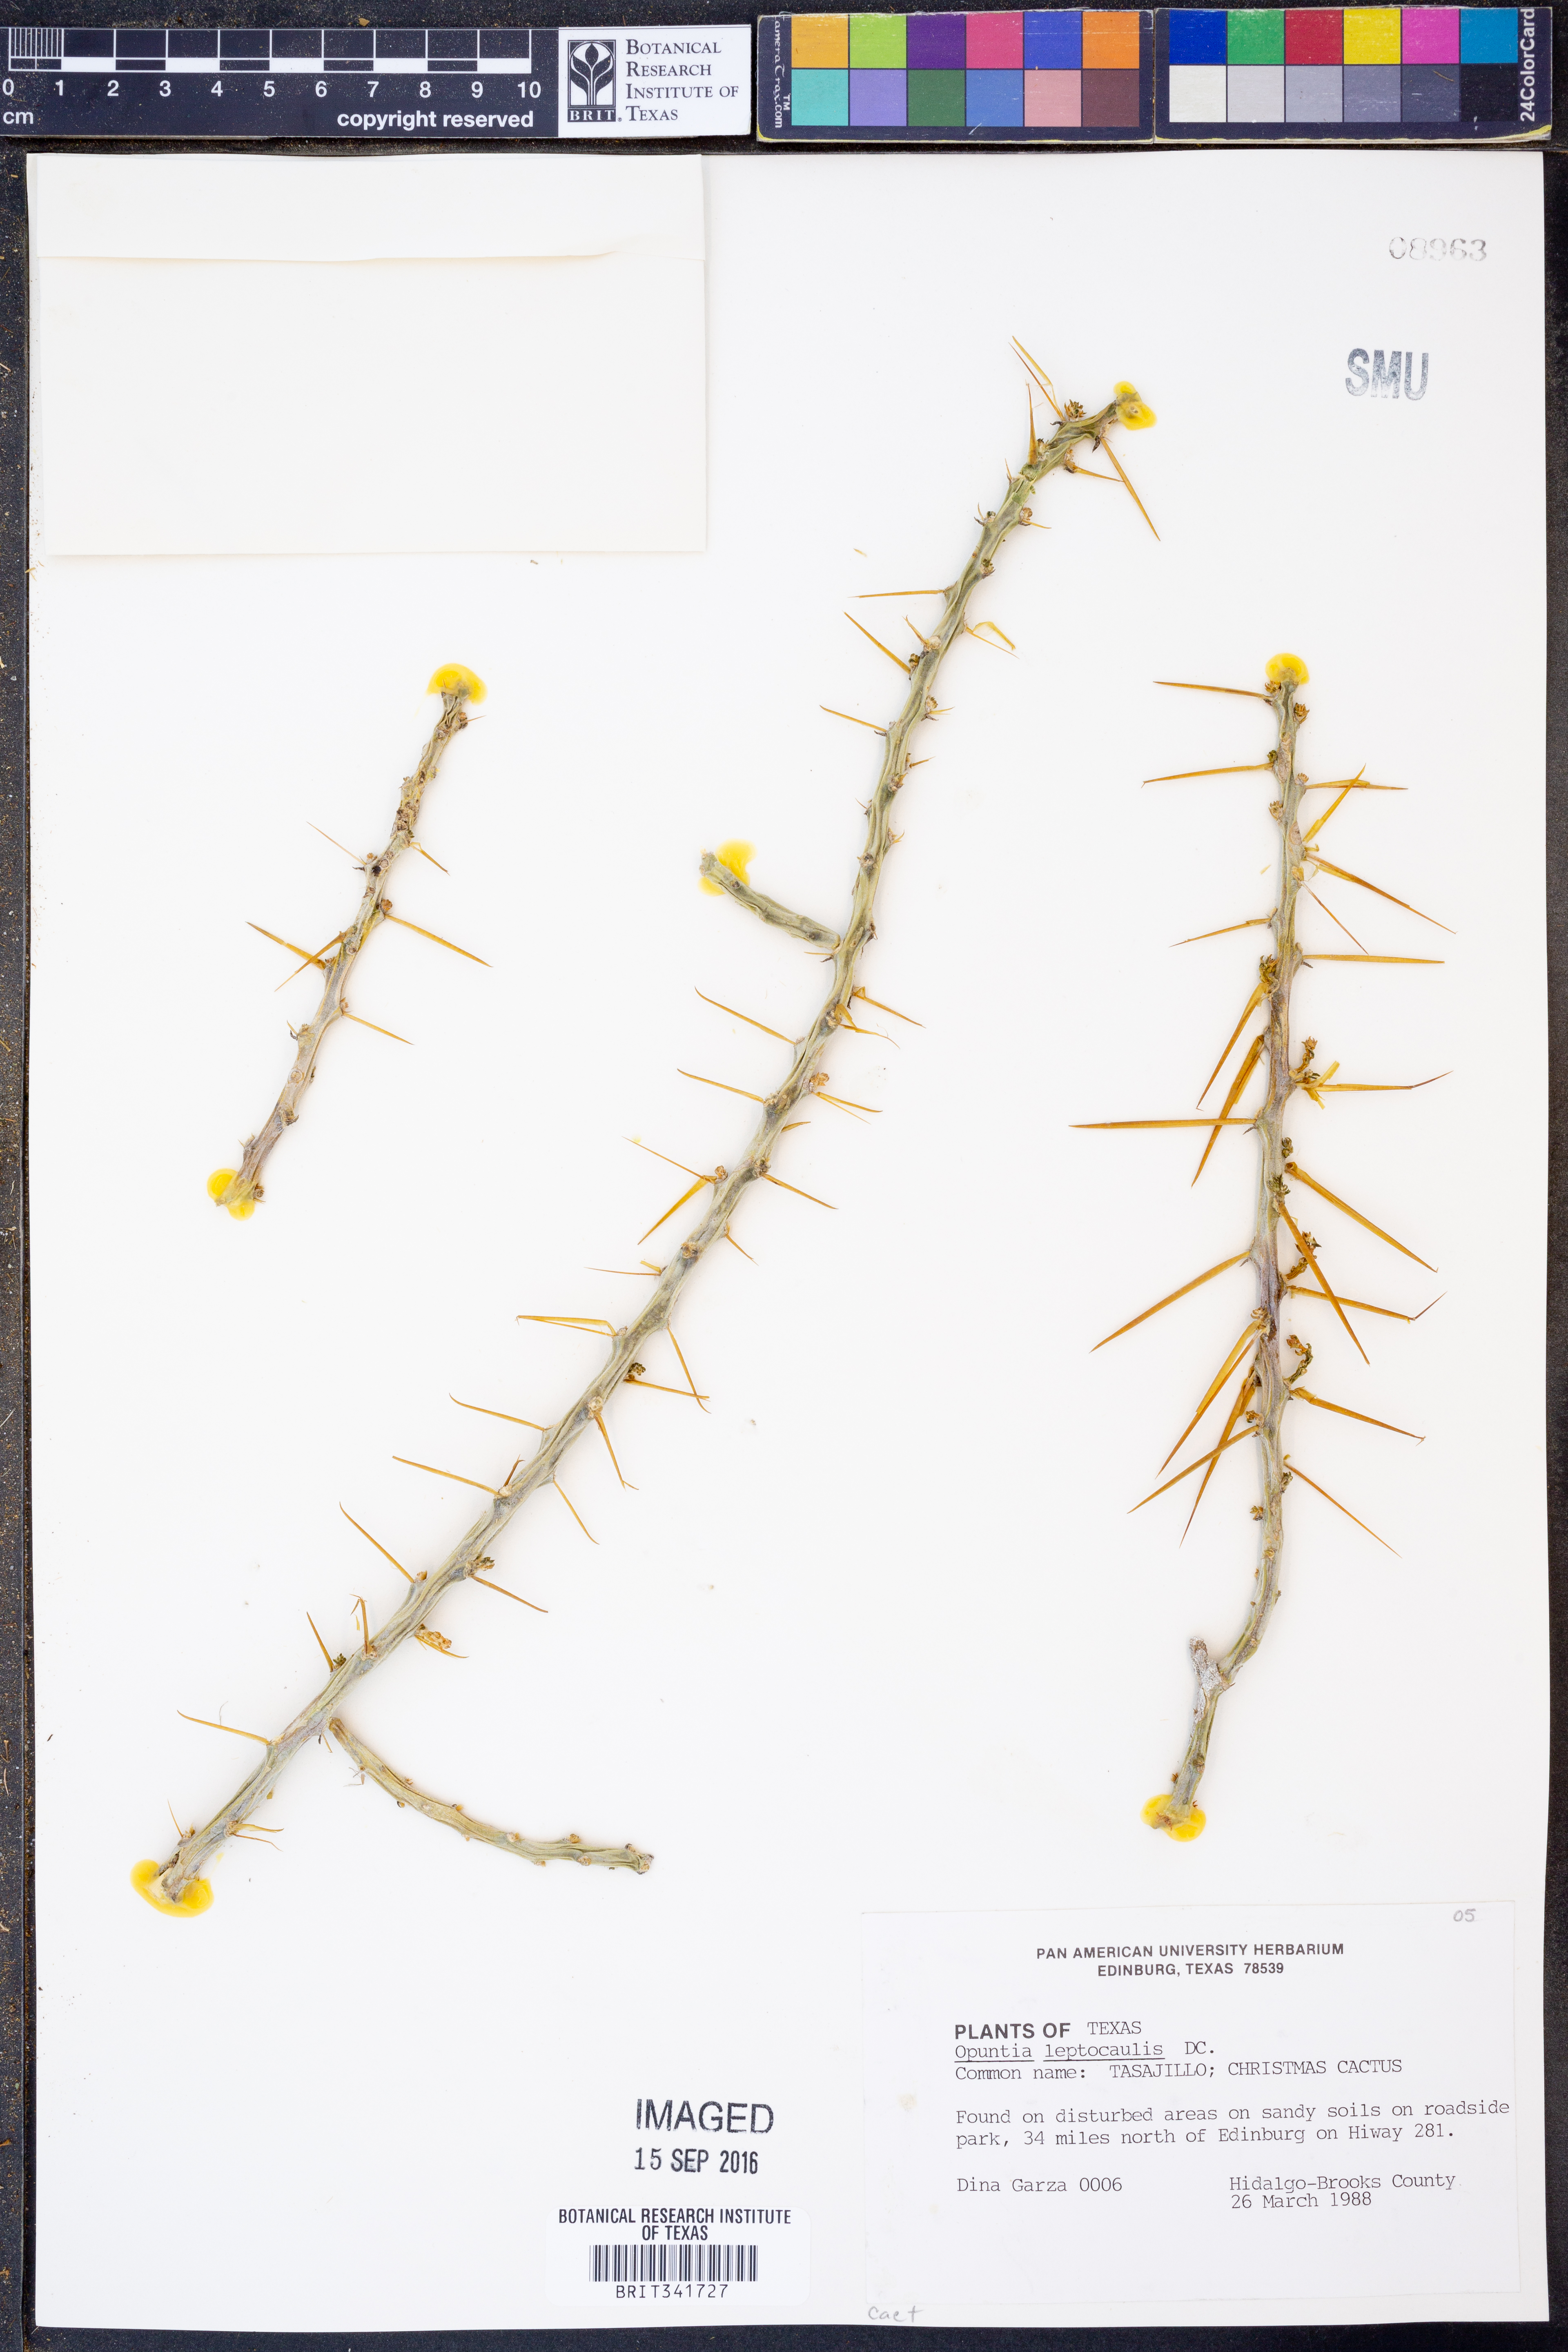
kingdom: Plantae
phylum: Tracheophyta
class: Magnoliopsida
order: Caryophyllales
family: Cactaceae
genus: Cylindropuntia
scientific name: Cylindropuntia leptocaulis
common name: Christmas cactus
